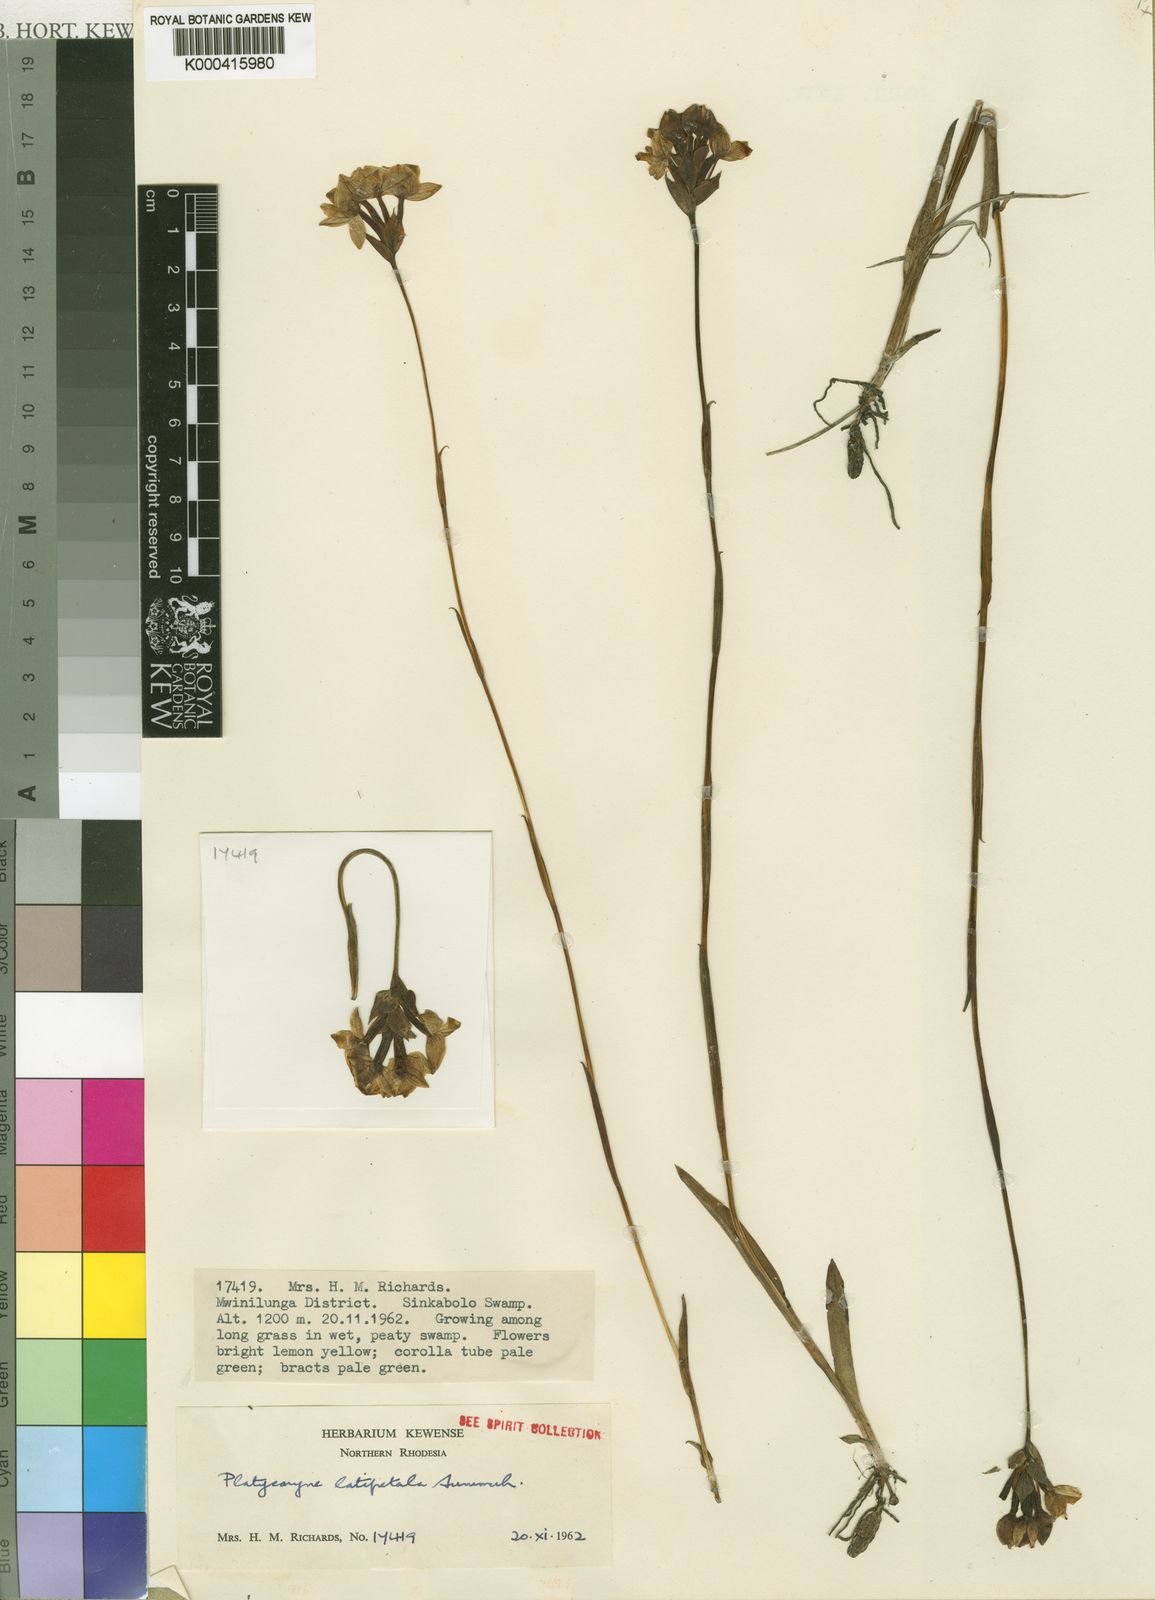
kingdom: Plantae
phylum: Tracheophyta
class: Liliopsida
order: Asparagales
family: Orchidaceae
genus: Platycoryne
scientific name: Platycoryne latipetala
